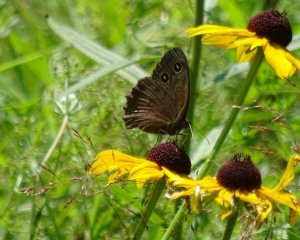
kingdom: Animalia
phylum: Arthropoda
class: Insecta
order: Lepidoptera
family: Nymphalidae
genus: Cercyonis
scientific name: Cercyonis pegala
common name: Common Wood-Nymph
